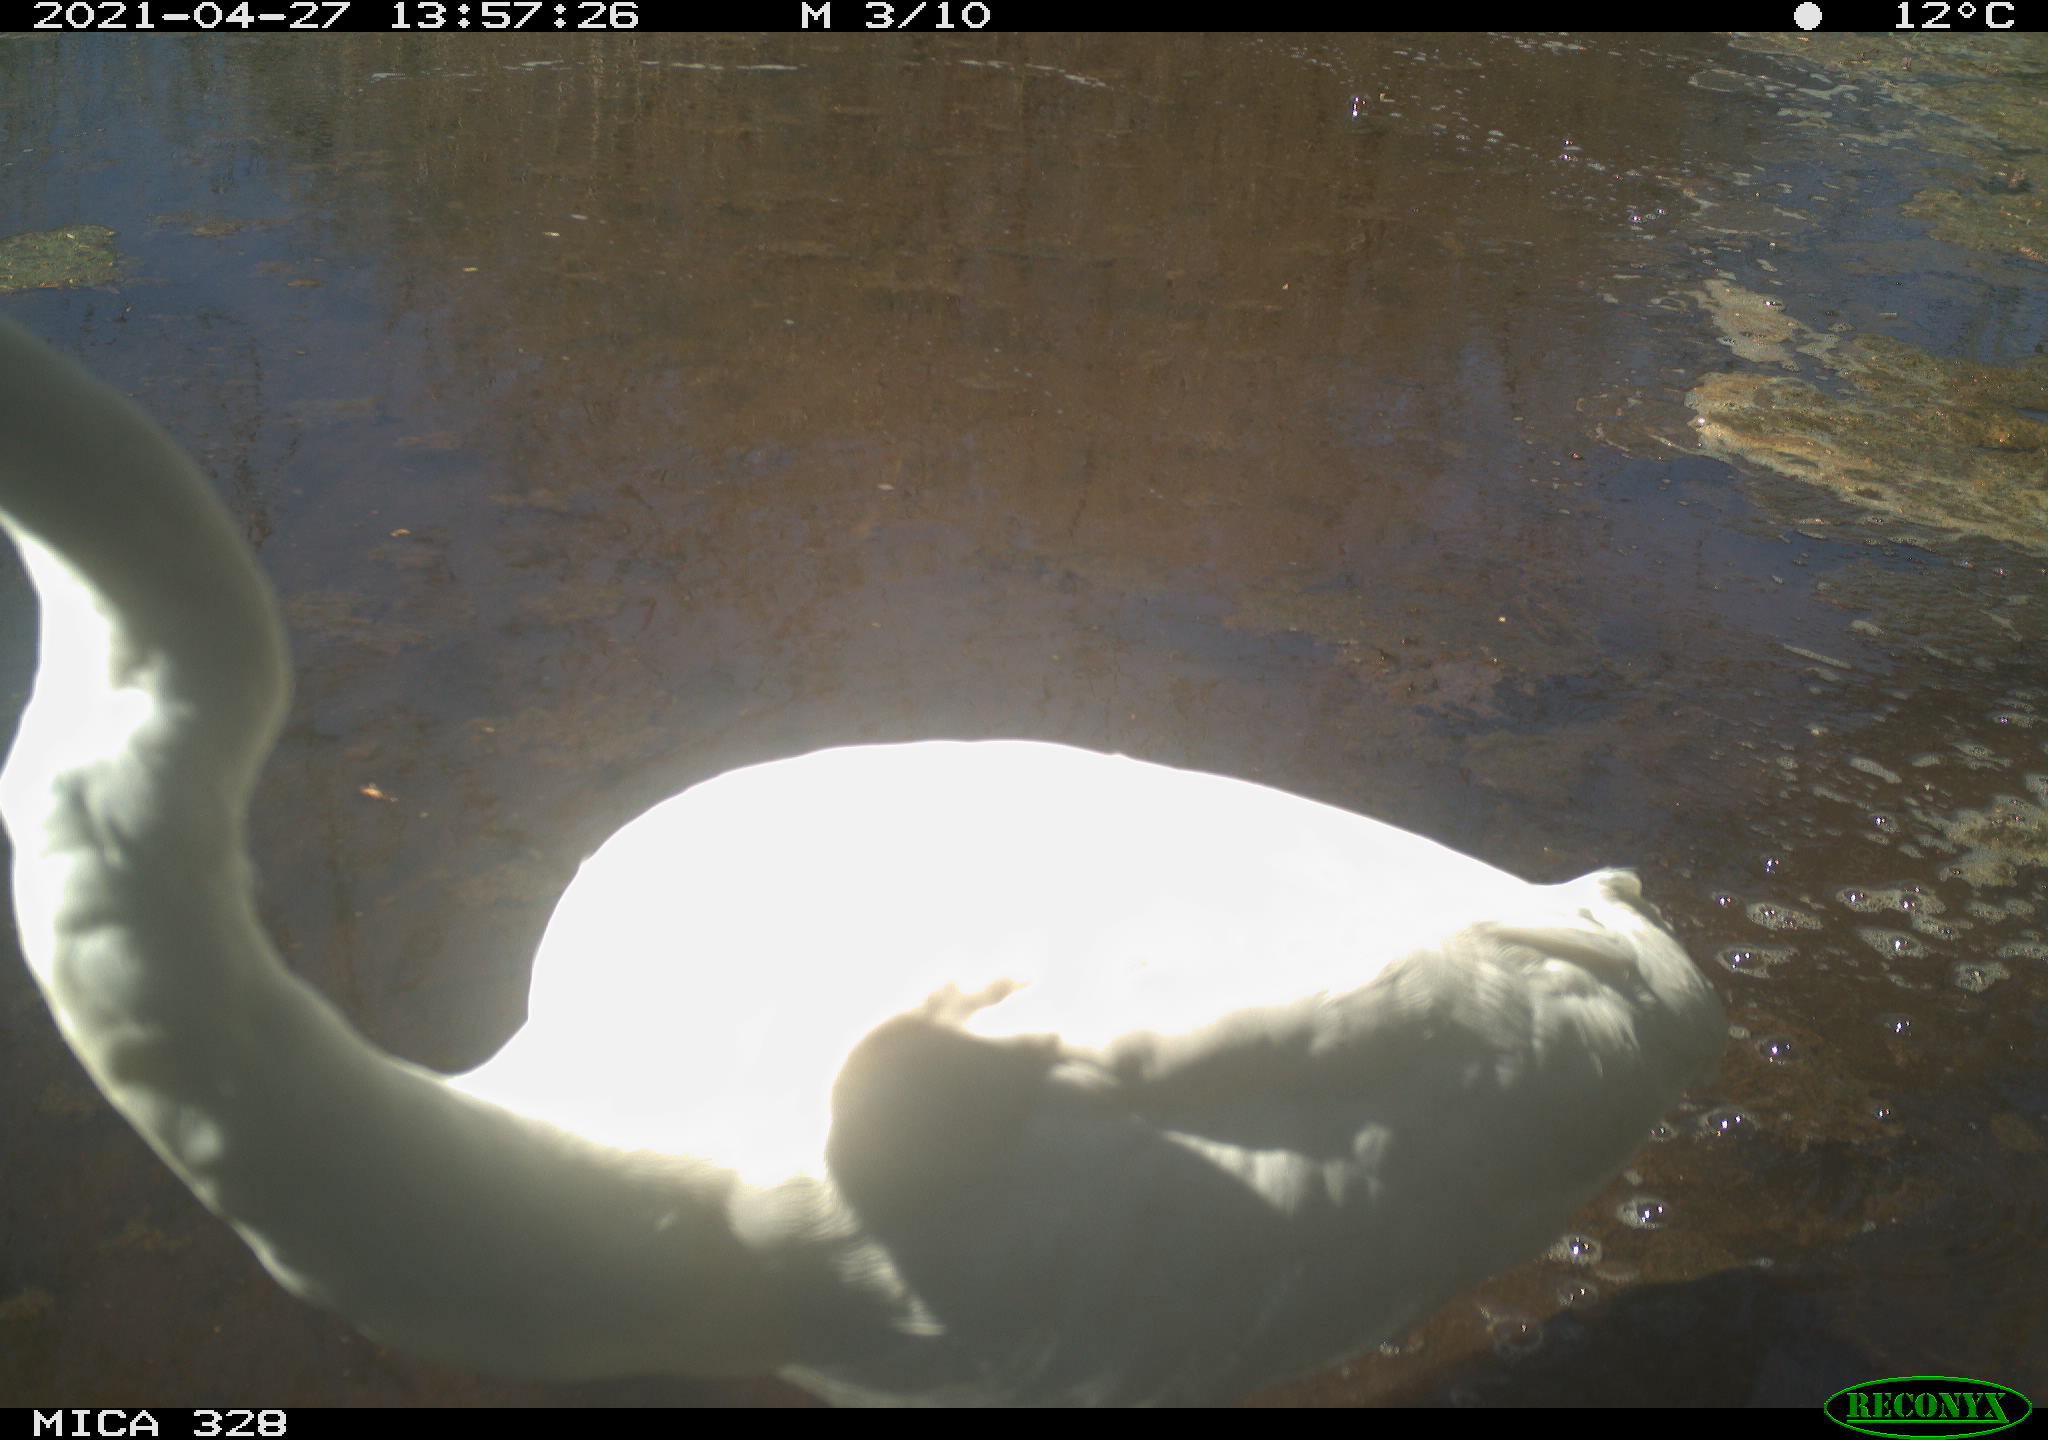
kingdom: Animalia
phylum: Chordata
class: Aves
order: Pelecaniformes
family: Ardeidae
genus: Ardea
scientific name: Ardea alba
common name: Great egret
